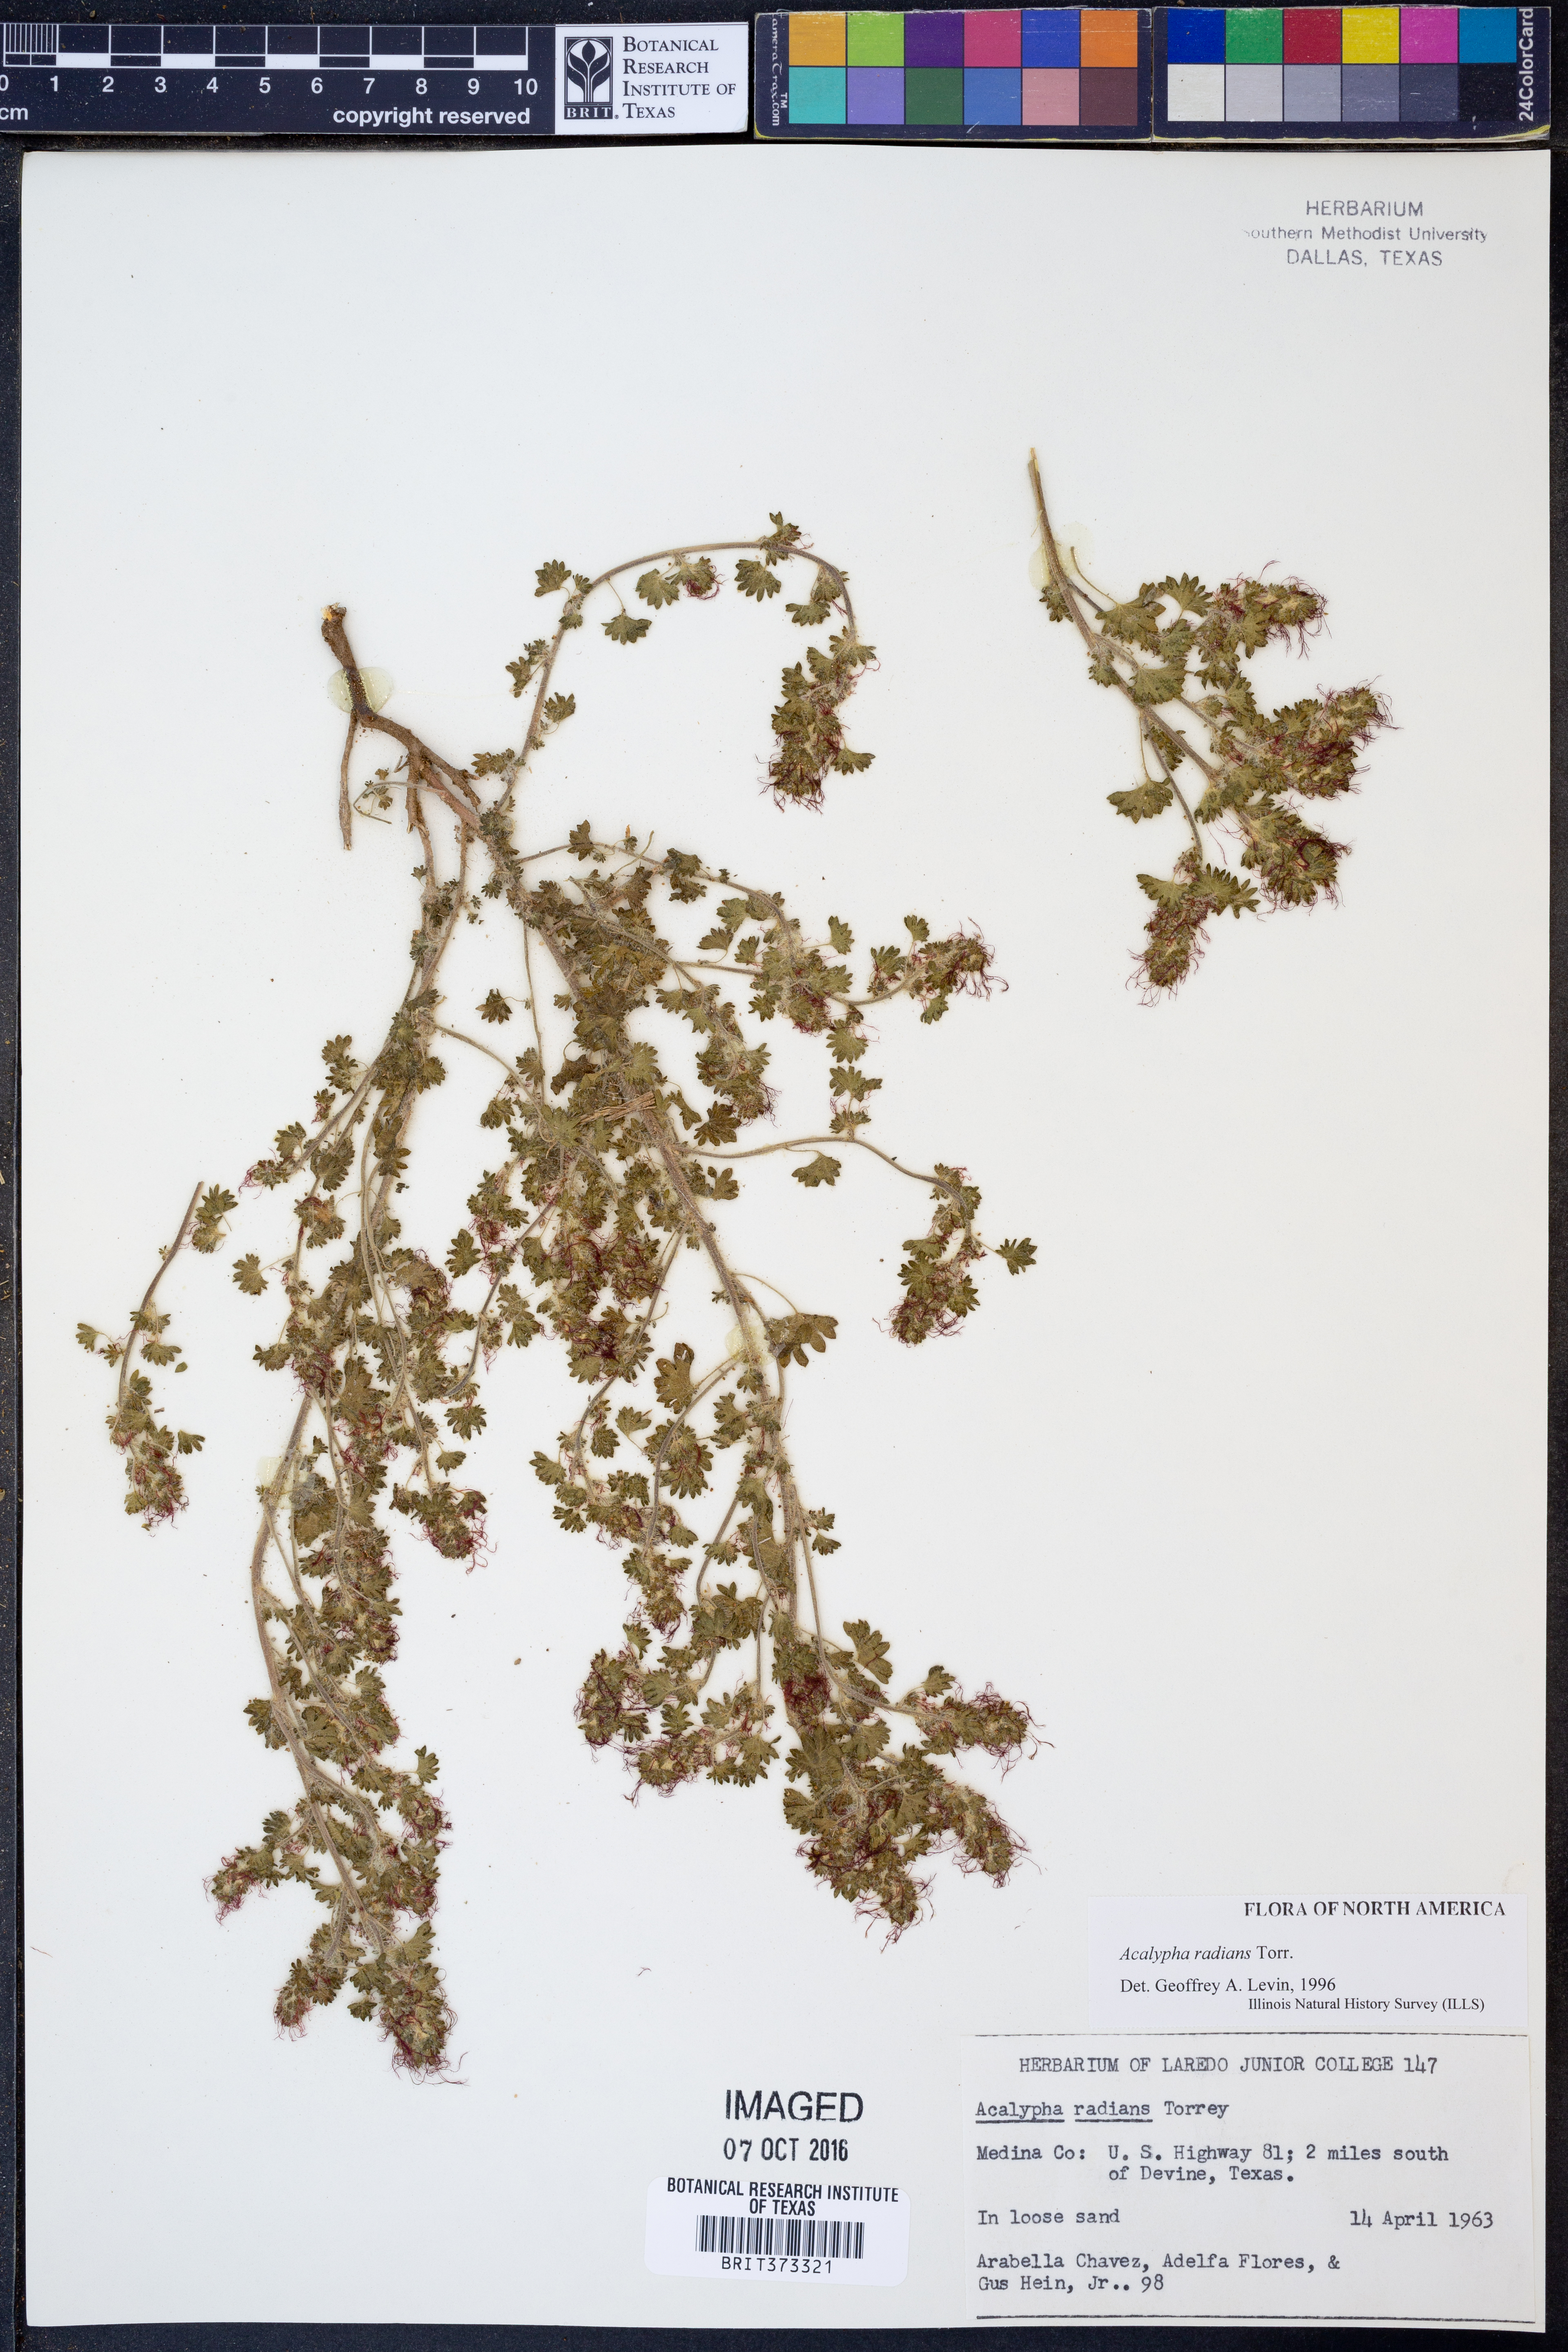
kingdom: Plantae
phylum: Tracheophyta
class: Magnoliopsida
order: Malpighiales
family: Euphorbiaceae
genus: Acalypha
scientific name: Acalypha radians
